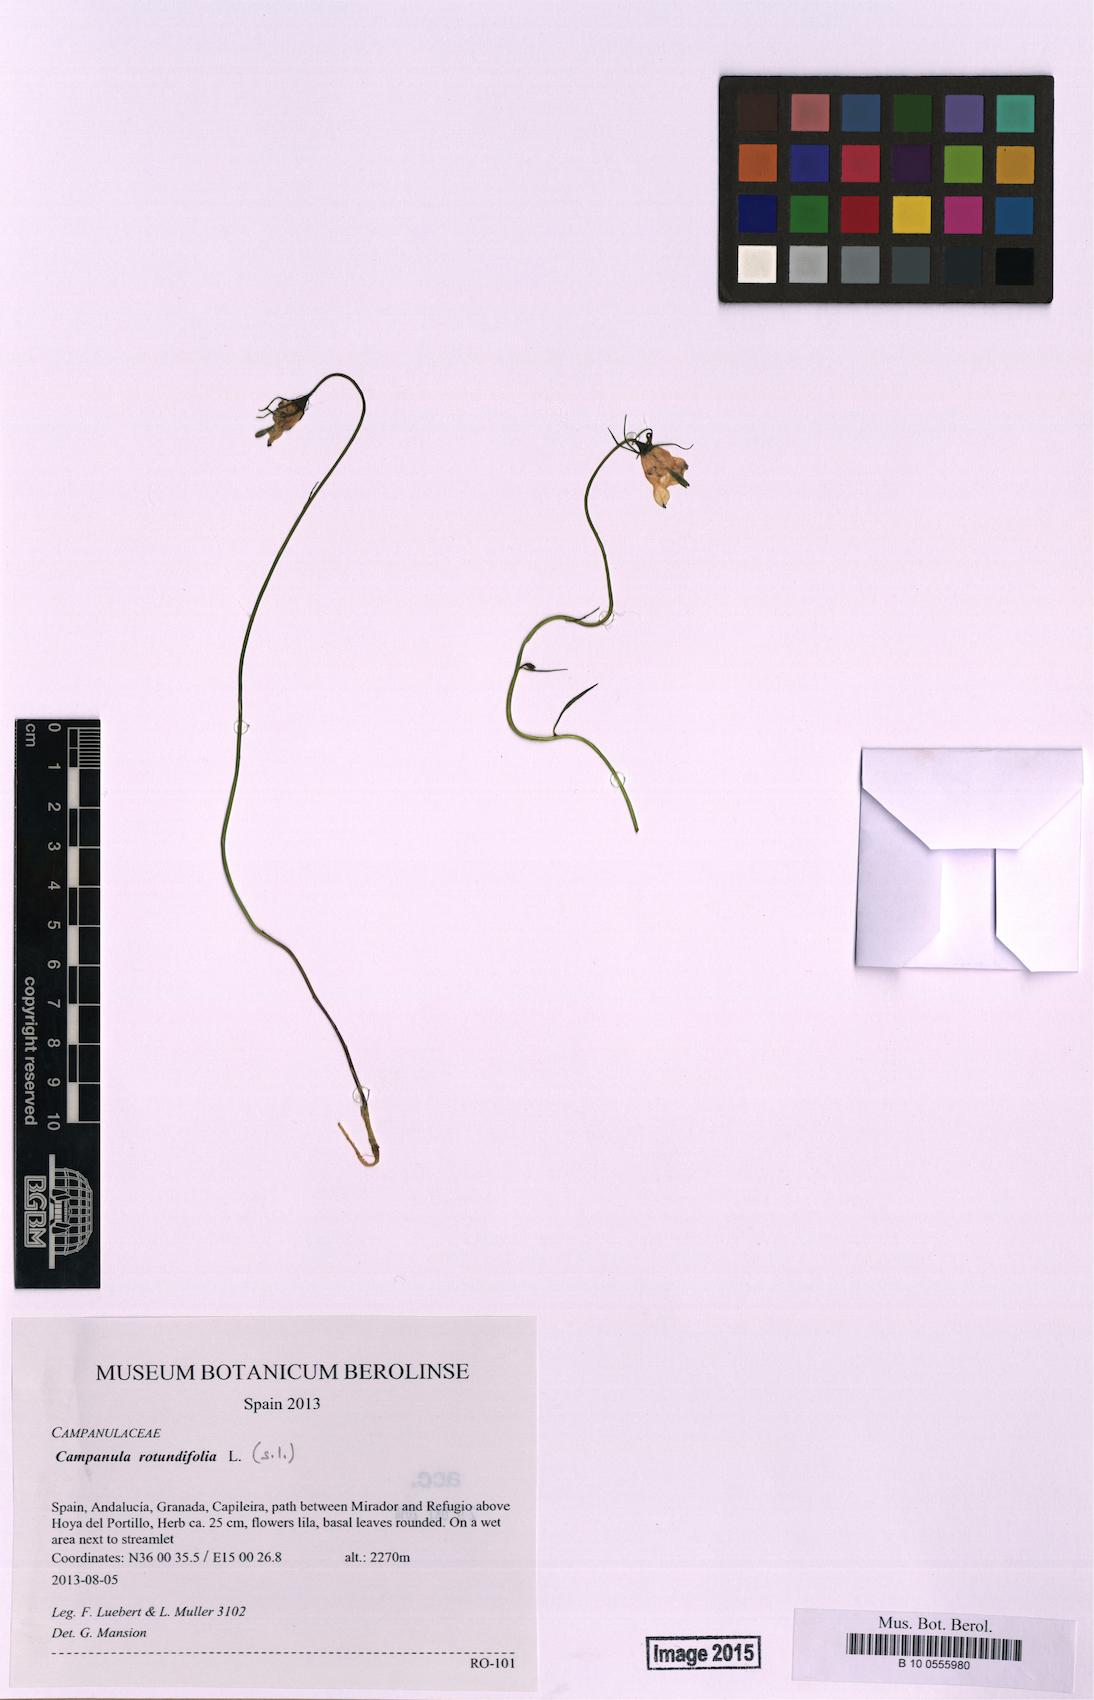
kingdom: Plantae
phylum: Tracheophyta
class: Magnoliopsida
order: Asterales
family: Campanulaceae
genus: Campanula
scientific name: Campanula rotundifolia
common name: Harebell
